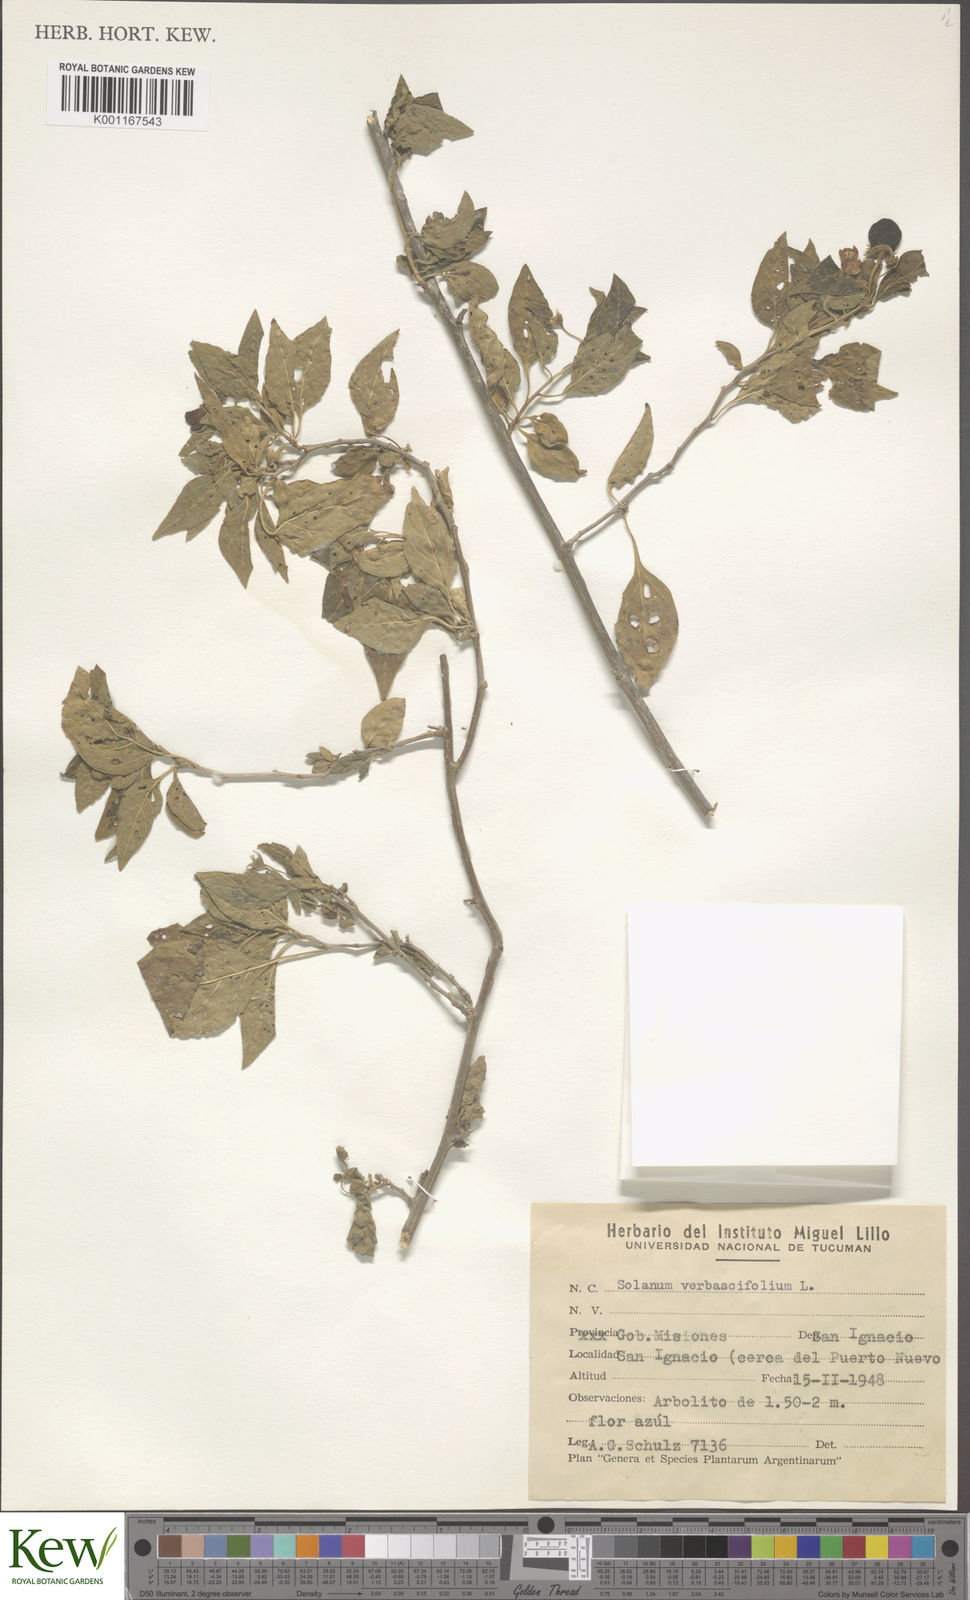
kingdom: Plantae
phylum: Tracheophyta
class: Magnoliopsida
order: Solanales
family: Solanaceae
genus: Solanum
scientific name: Solanum erianthum
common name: Tobacco-tree
